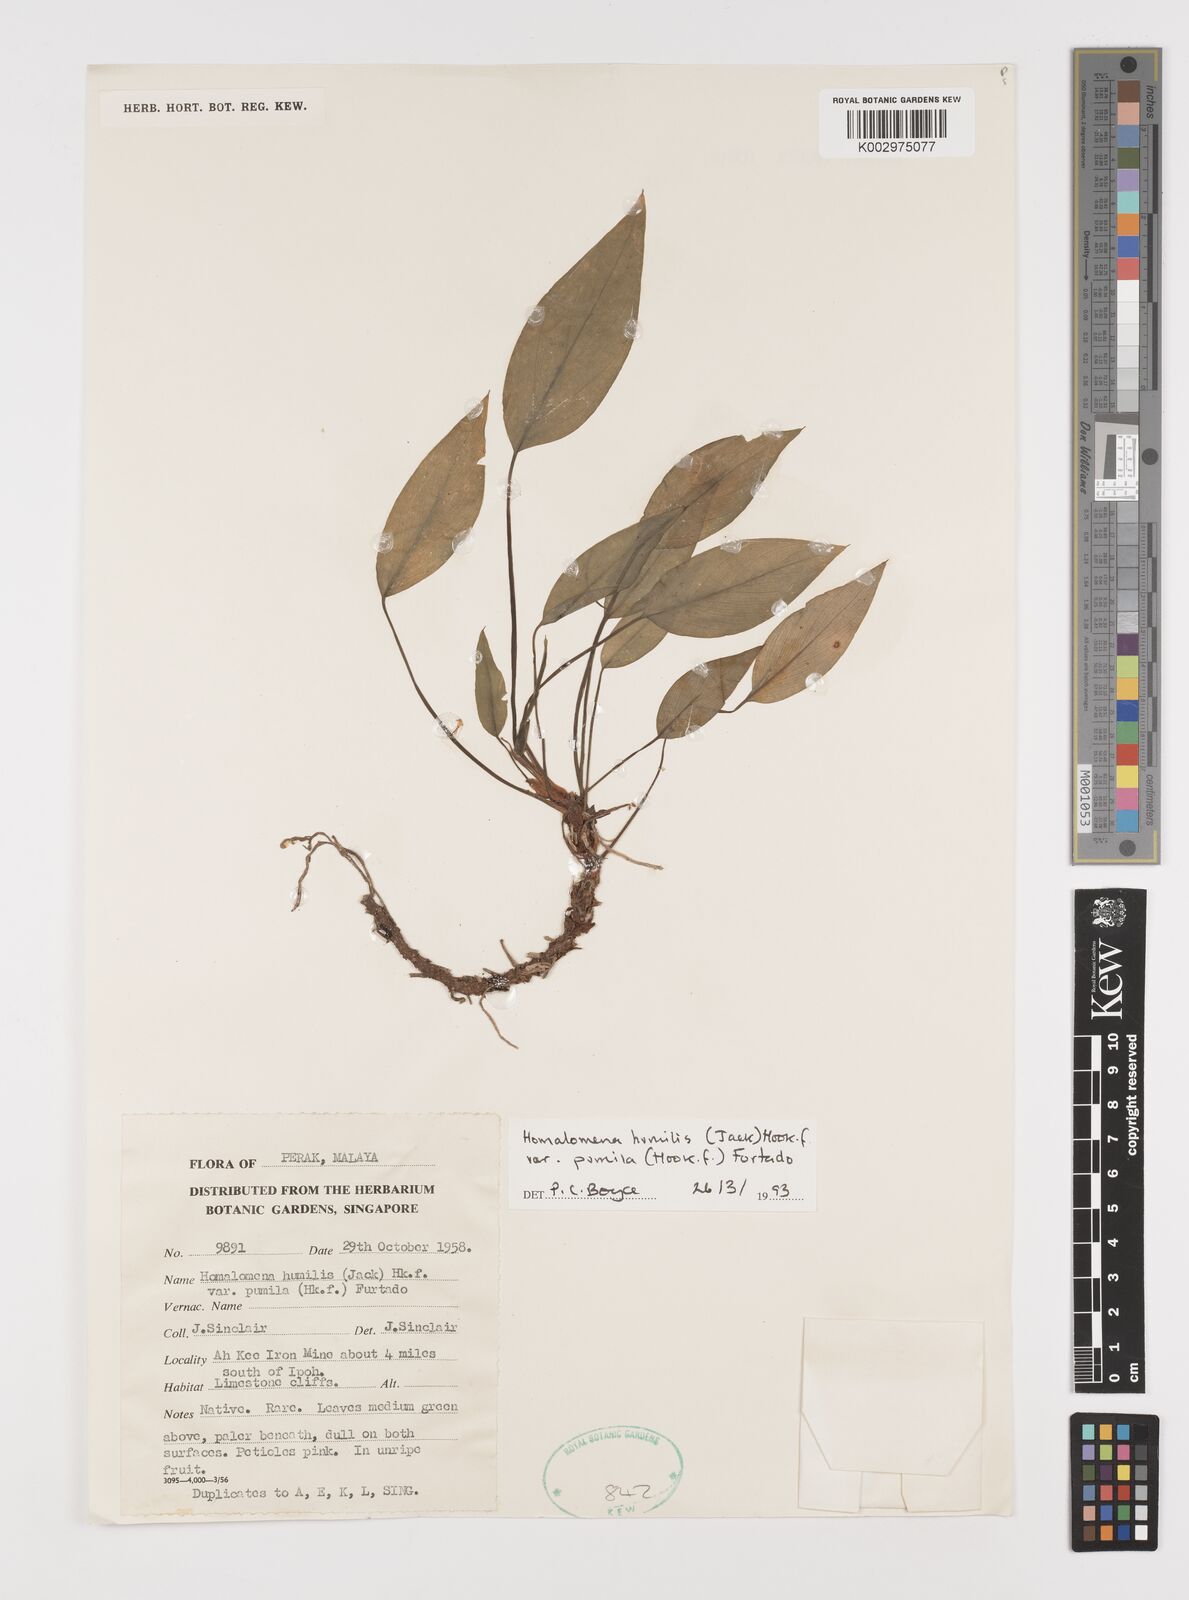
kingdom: Plantae
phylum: Tracheophyta
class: Liliopsida
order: Alismatales
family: Araceae
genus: Homalomena
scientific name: Homalomena humilis
